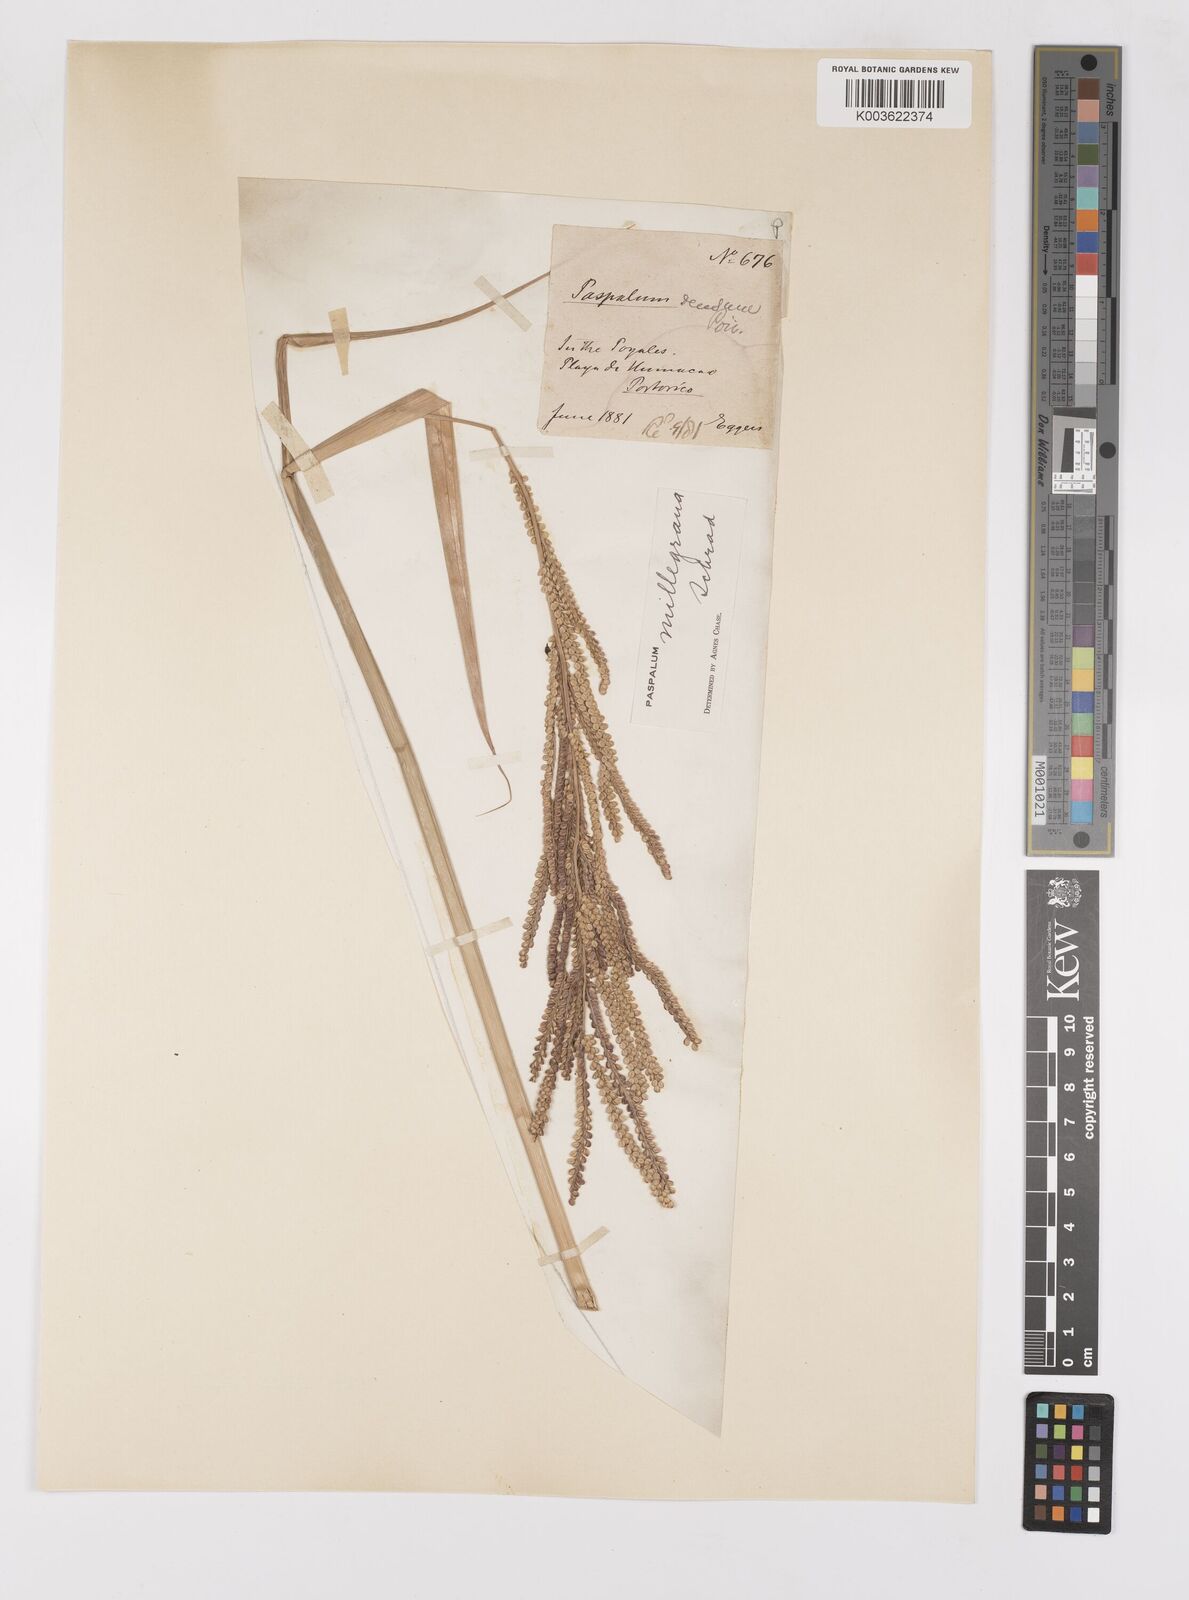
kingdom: Plantae
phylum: Tracheophyta
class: Liliopsida
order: Poales
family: Poaceae
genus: Paspalum
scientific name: Paspalum millegranum
